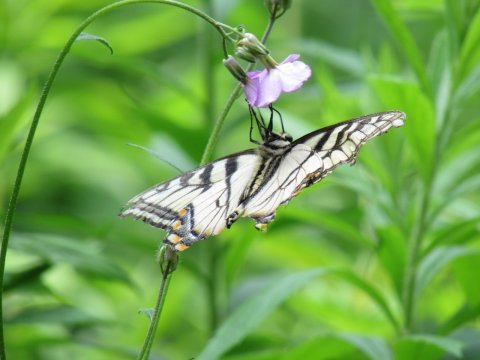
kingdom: Animalia
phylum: Arthropoda
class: Insecta
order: Lepidoptera
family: Papilionidae
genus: Pterourus
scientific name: Pterourus canadensis
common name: Canadian Tiger Swallowtail
